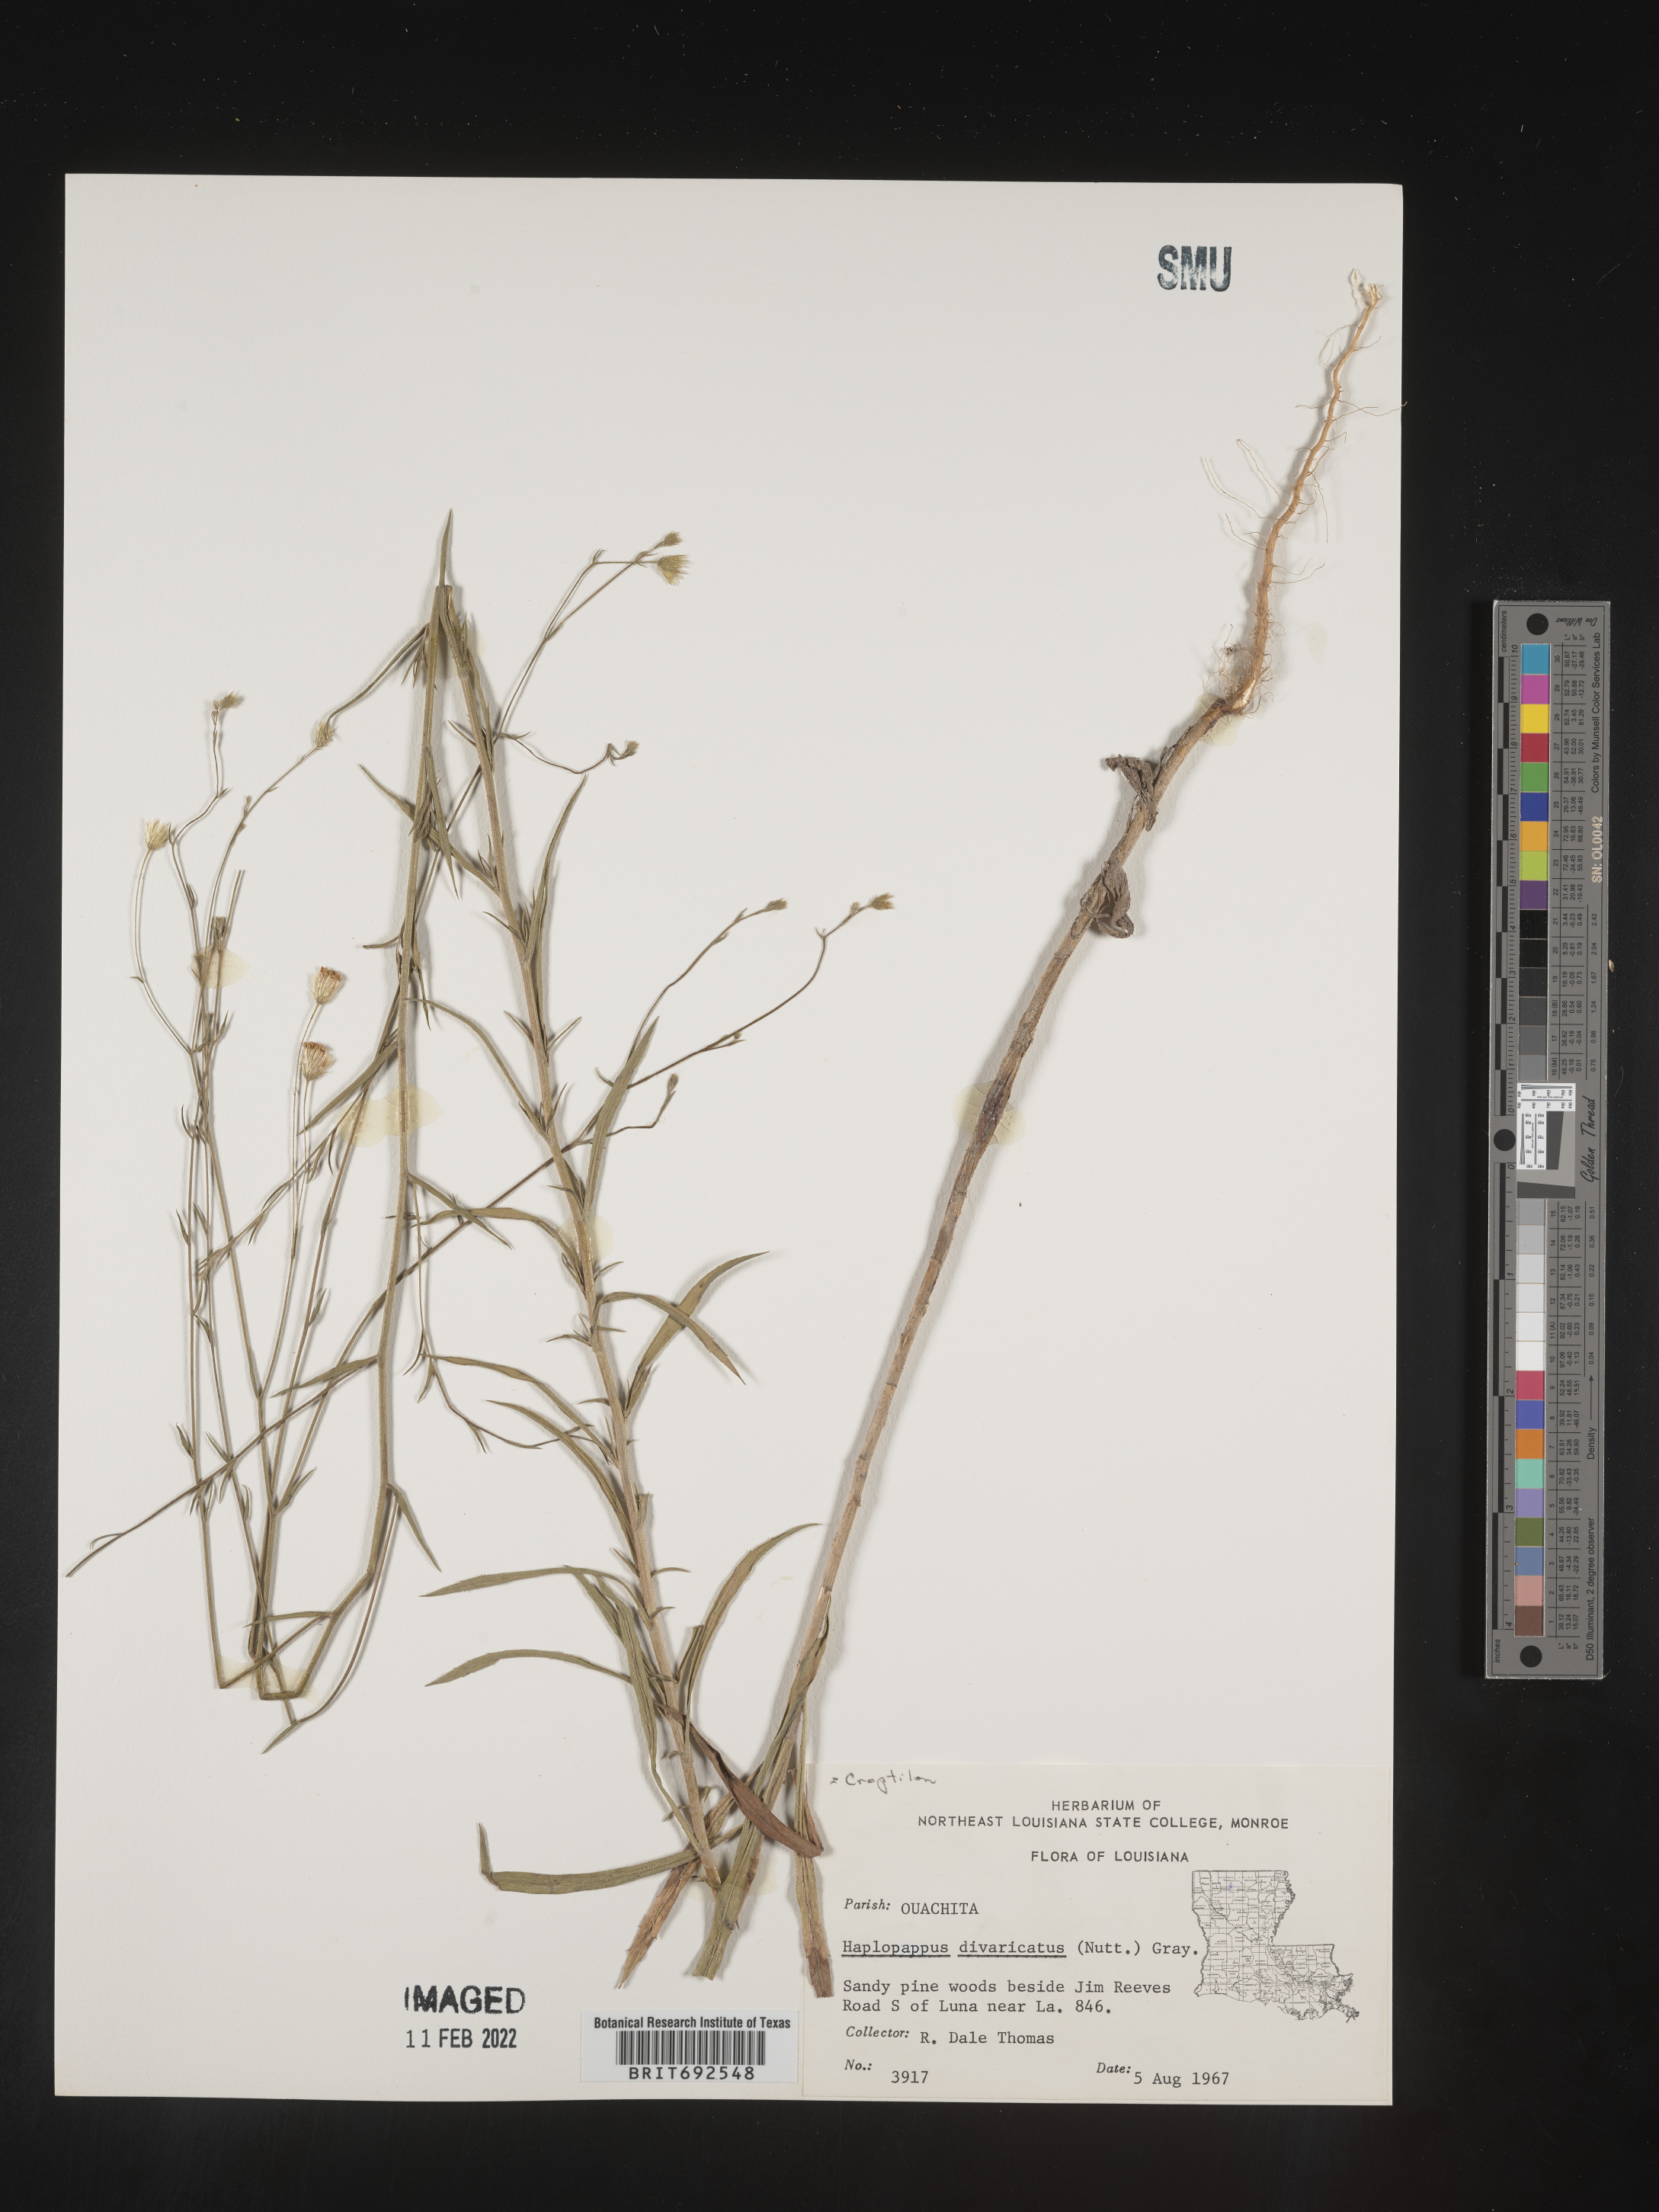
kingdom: Plantae
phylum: Tracheophyta
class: Magnoliopsida
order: Asterales
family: Asteraceae
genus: Croptilon
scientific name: Croptilon divaricatum
